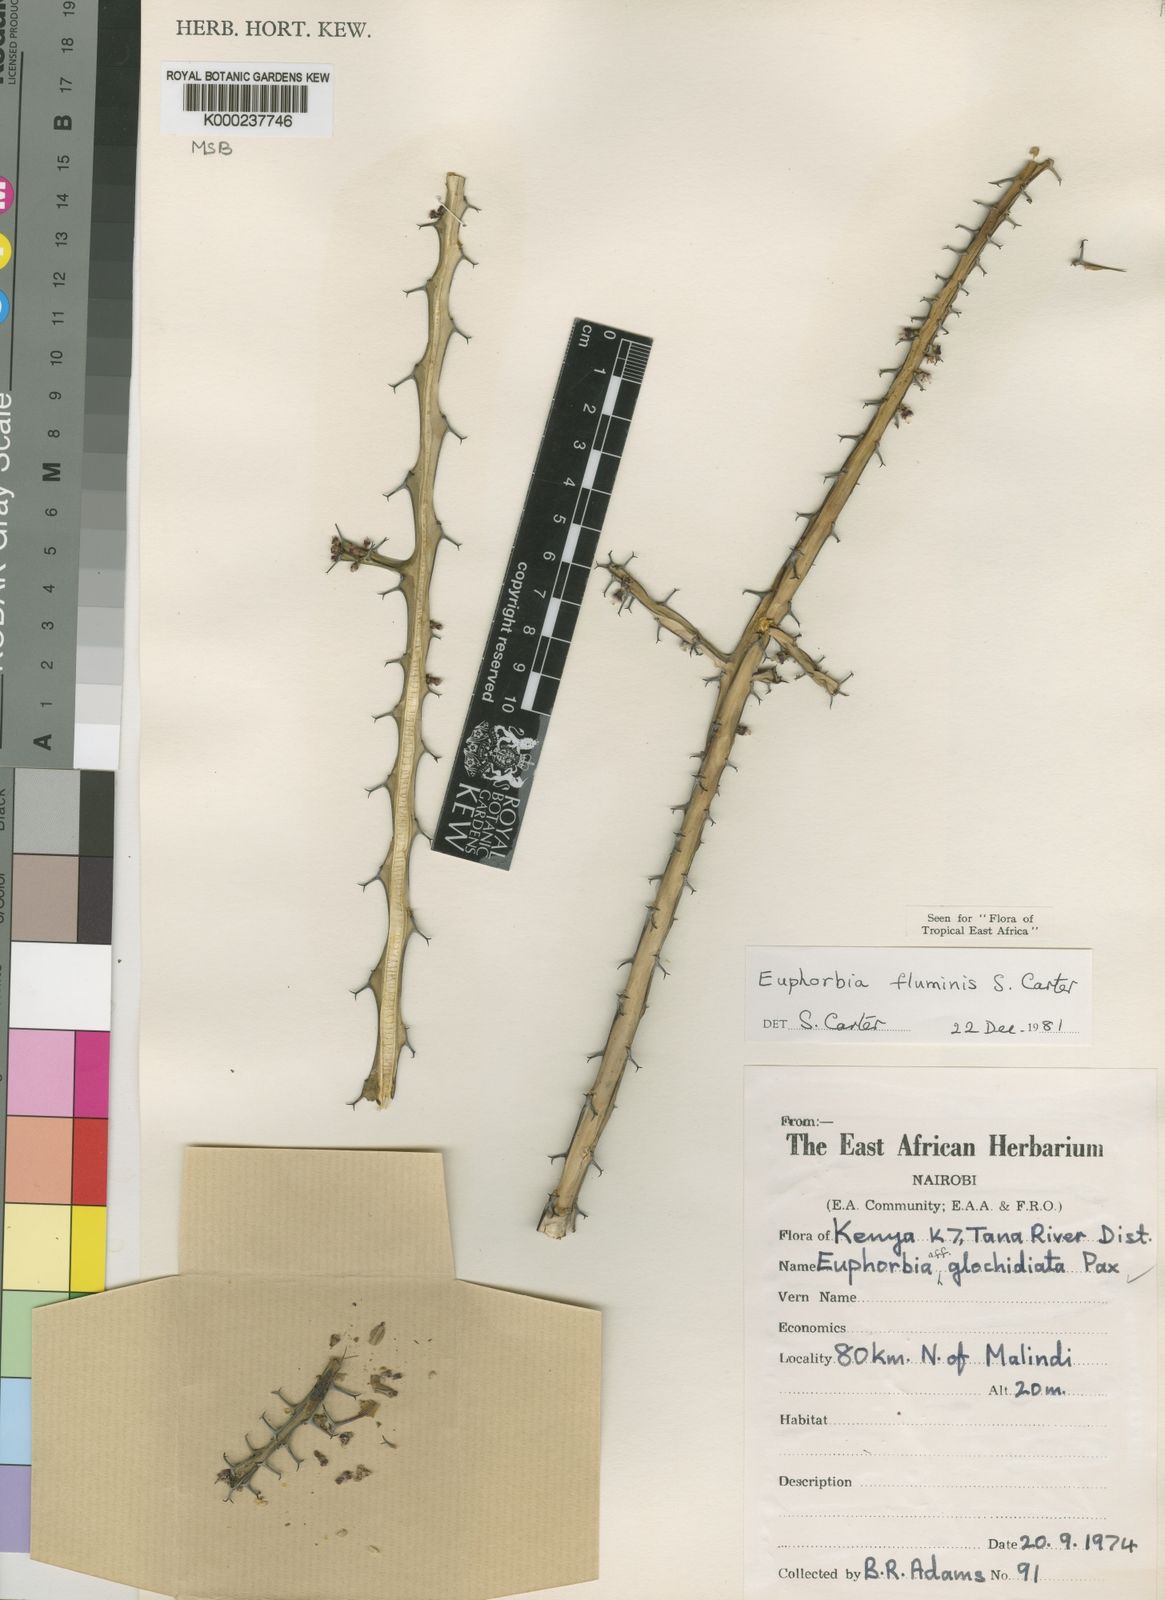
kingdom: Plantae
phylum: Tracheophyta
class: Magnoliopsida
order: Malpighiales
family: Euphorbiaceae
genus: Euphorbia
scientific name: Euphorbia fluminis
